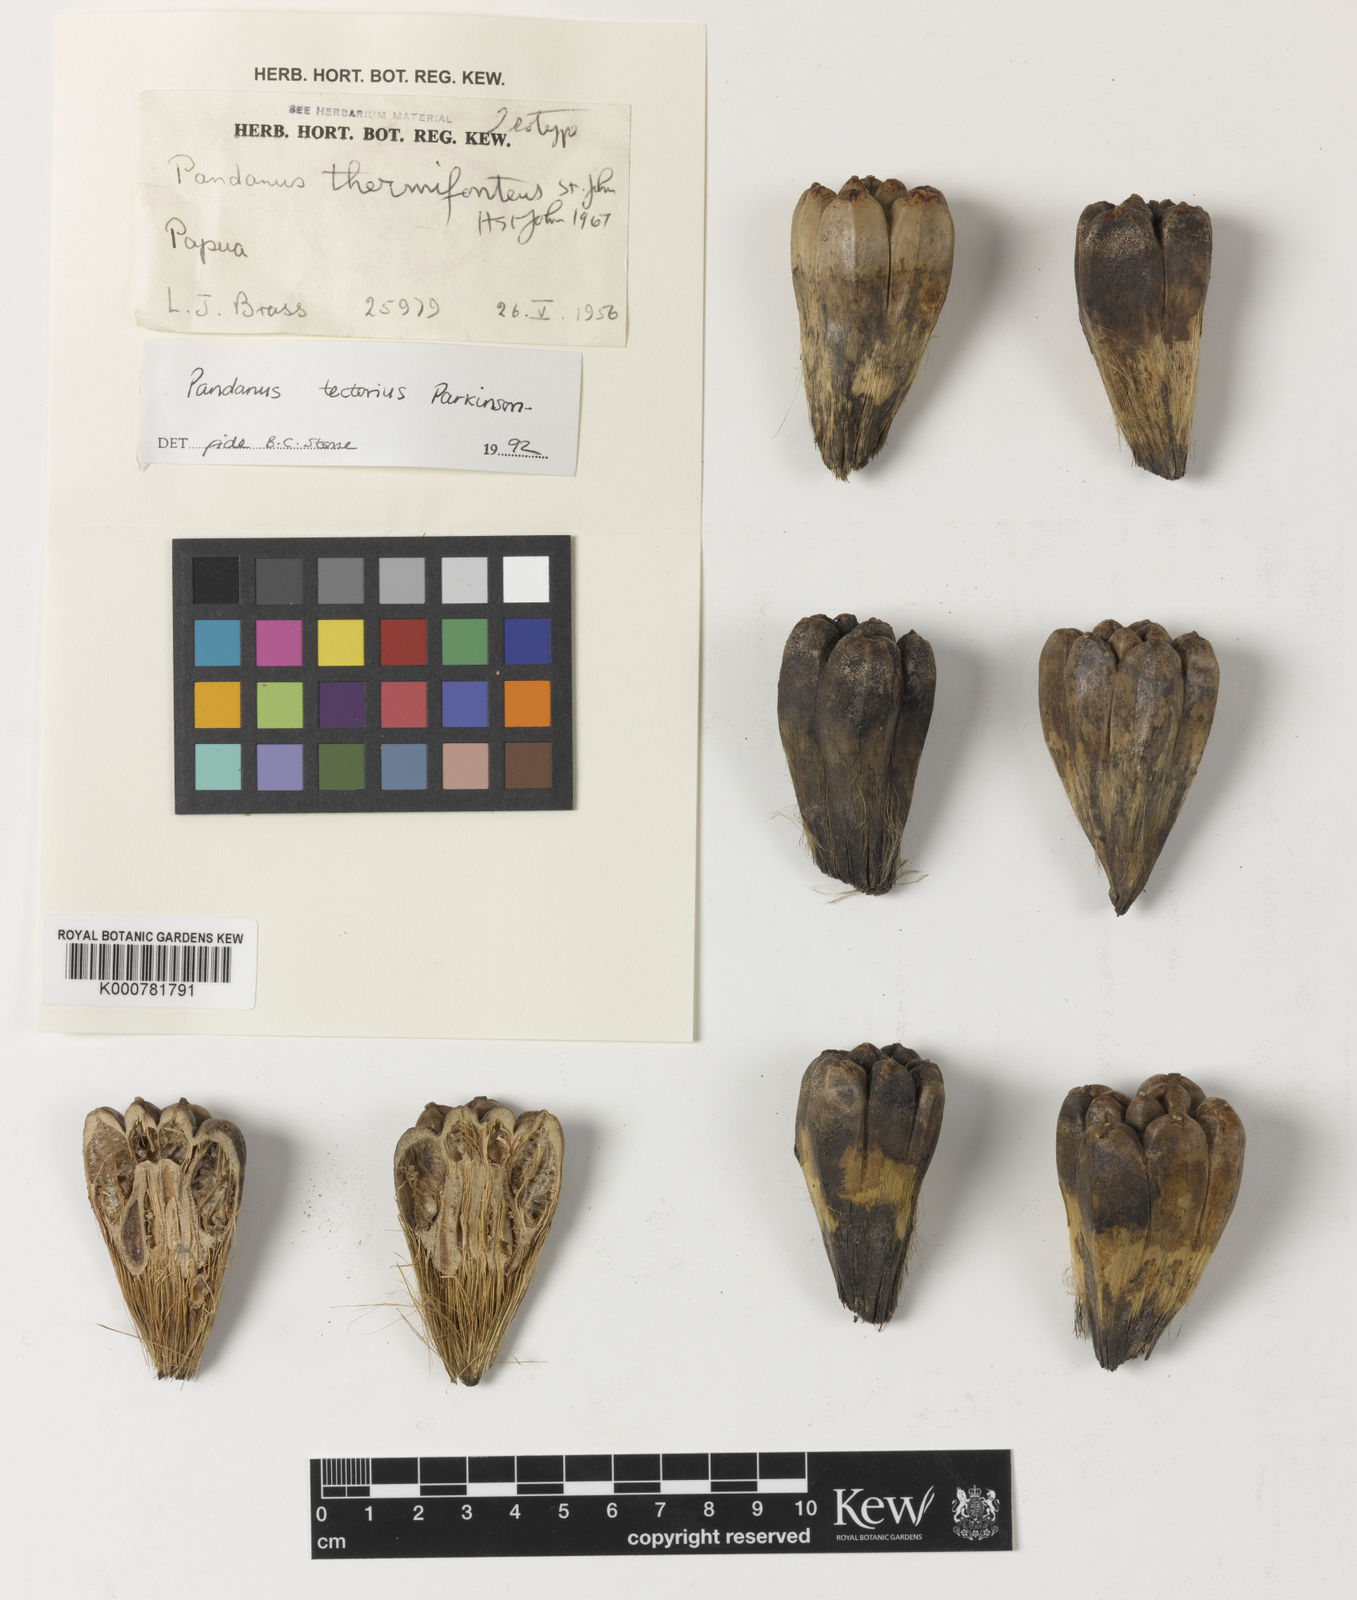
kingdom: Plantae
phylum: Tracheophyta
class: Liliopsida
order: Pandanales
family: Pandanaceae
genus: Pandanus
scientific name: Pandanus
